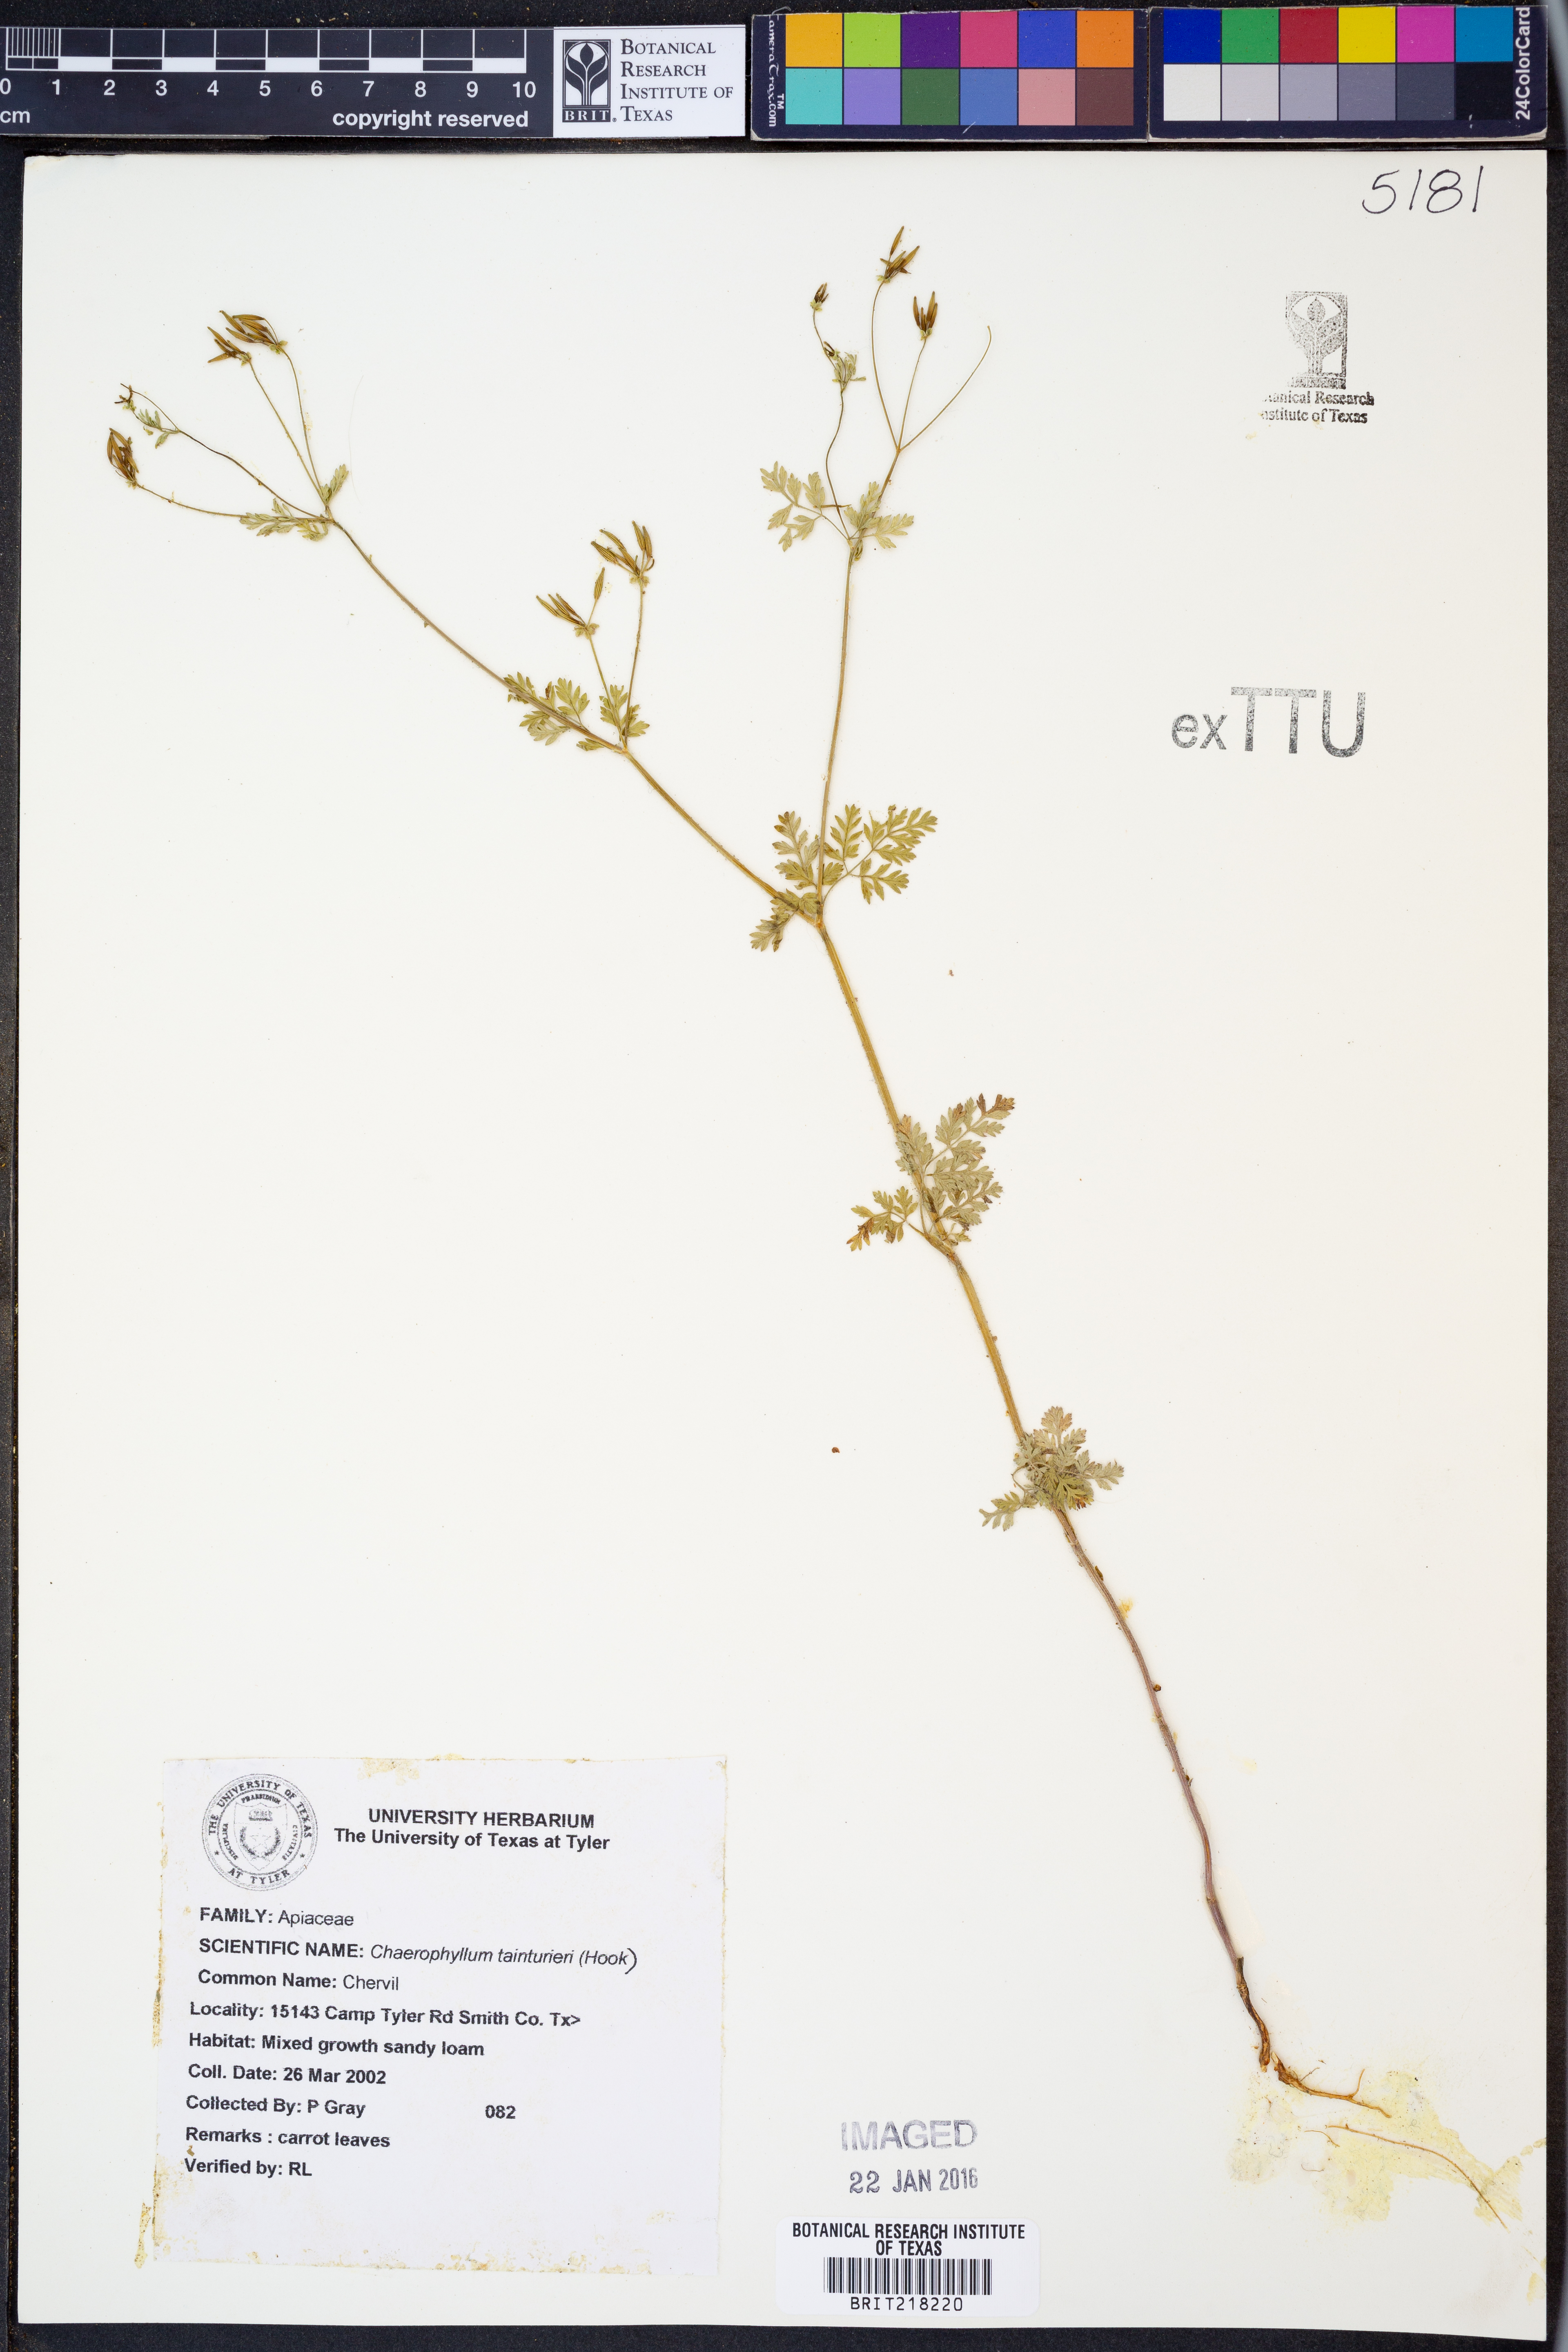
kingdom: Plantae
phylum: Tracheophyta
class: Magnoliopsida
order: Apiales
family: Apiaceae
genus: Chaerophyllum
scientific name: Chaerophyllum tainturieri
